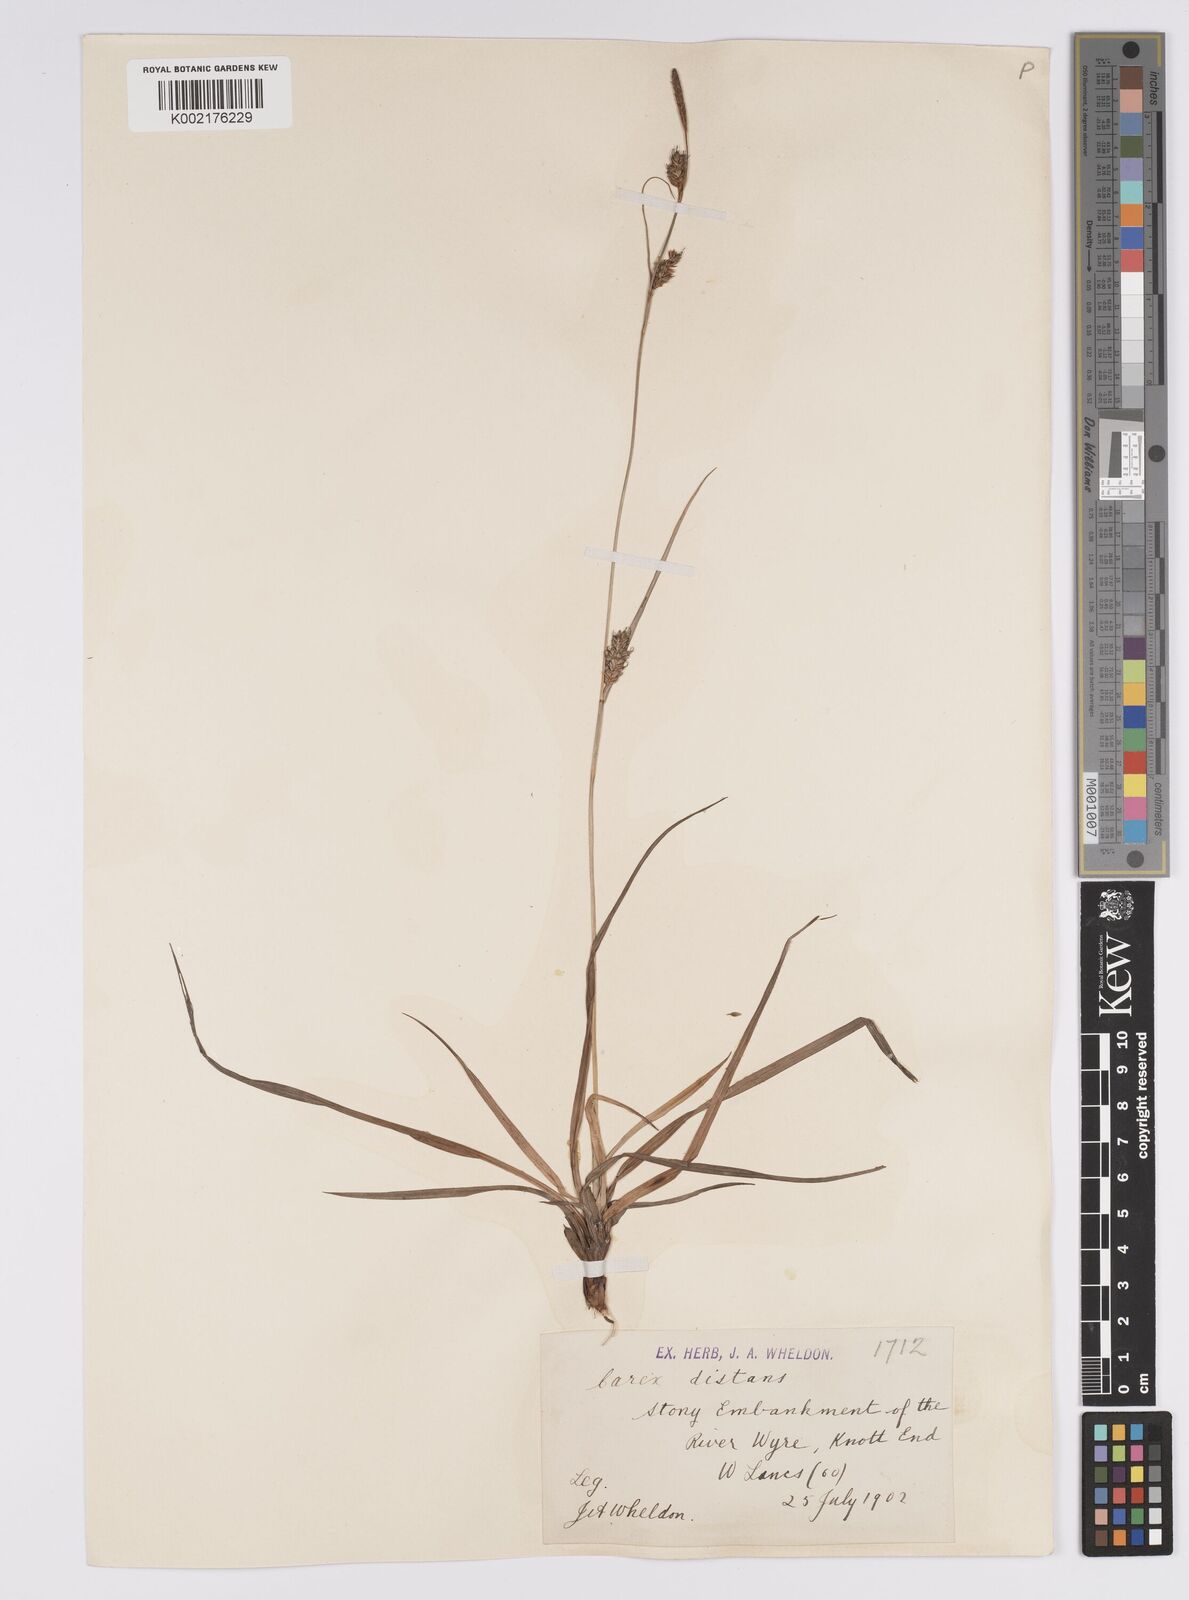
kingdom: Plantae
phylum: Tracheophyta
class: Liliopsida
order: Poales
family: Cyperaceae
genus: Carex
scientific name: Carex distans
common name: Distant sedge
